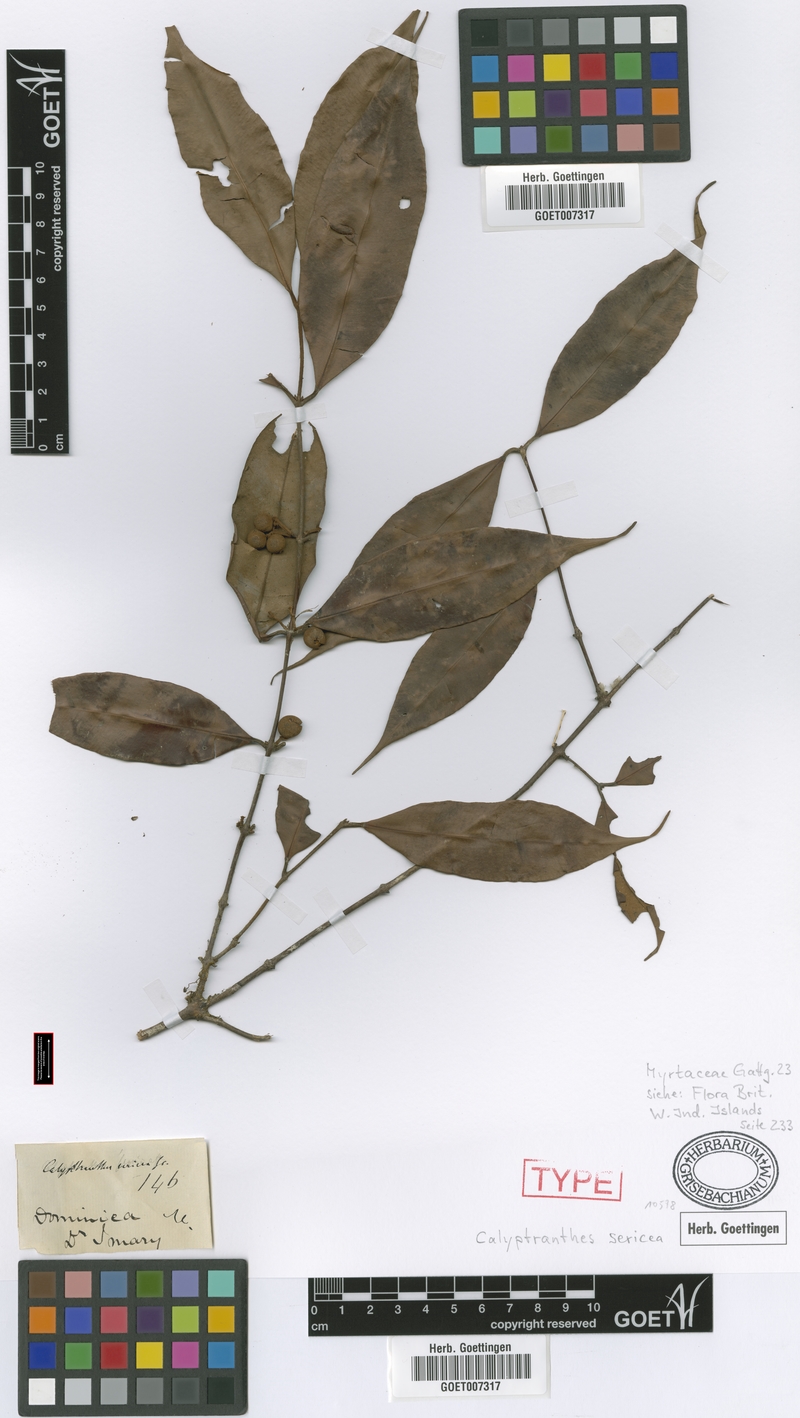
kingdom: Plantae
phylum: Tracheophyta
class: Magnoliopsida
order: Myrtales
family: Myrtaceae
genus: Myrcia
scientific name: Myrcia fasciculata
